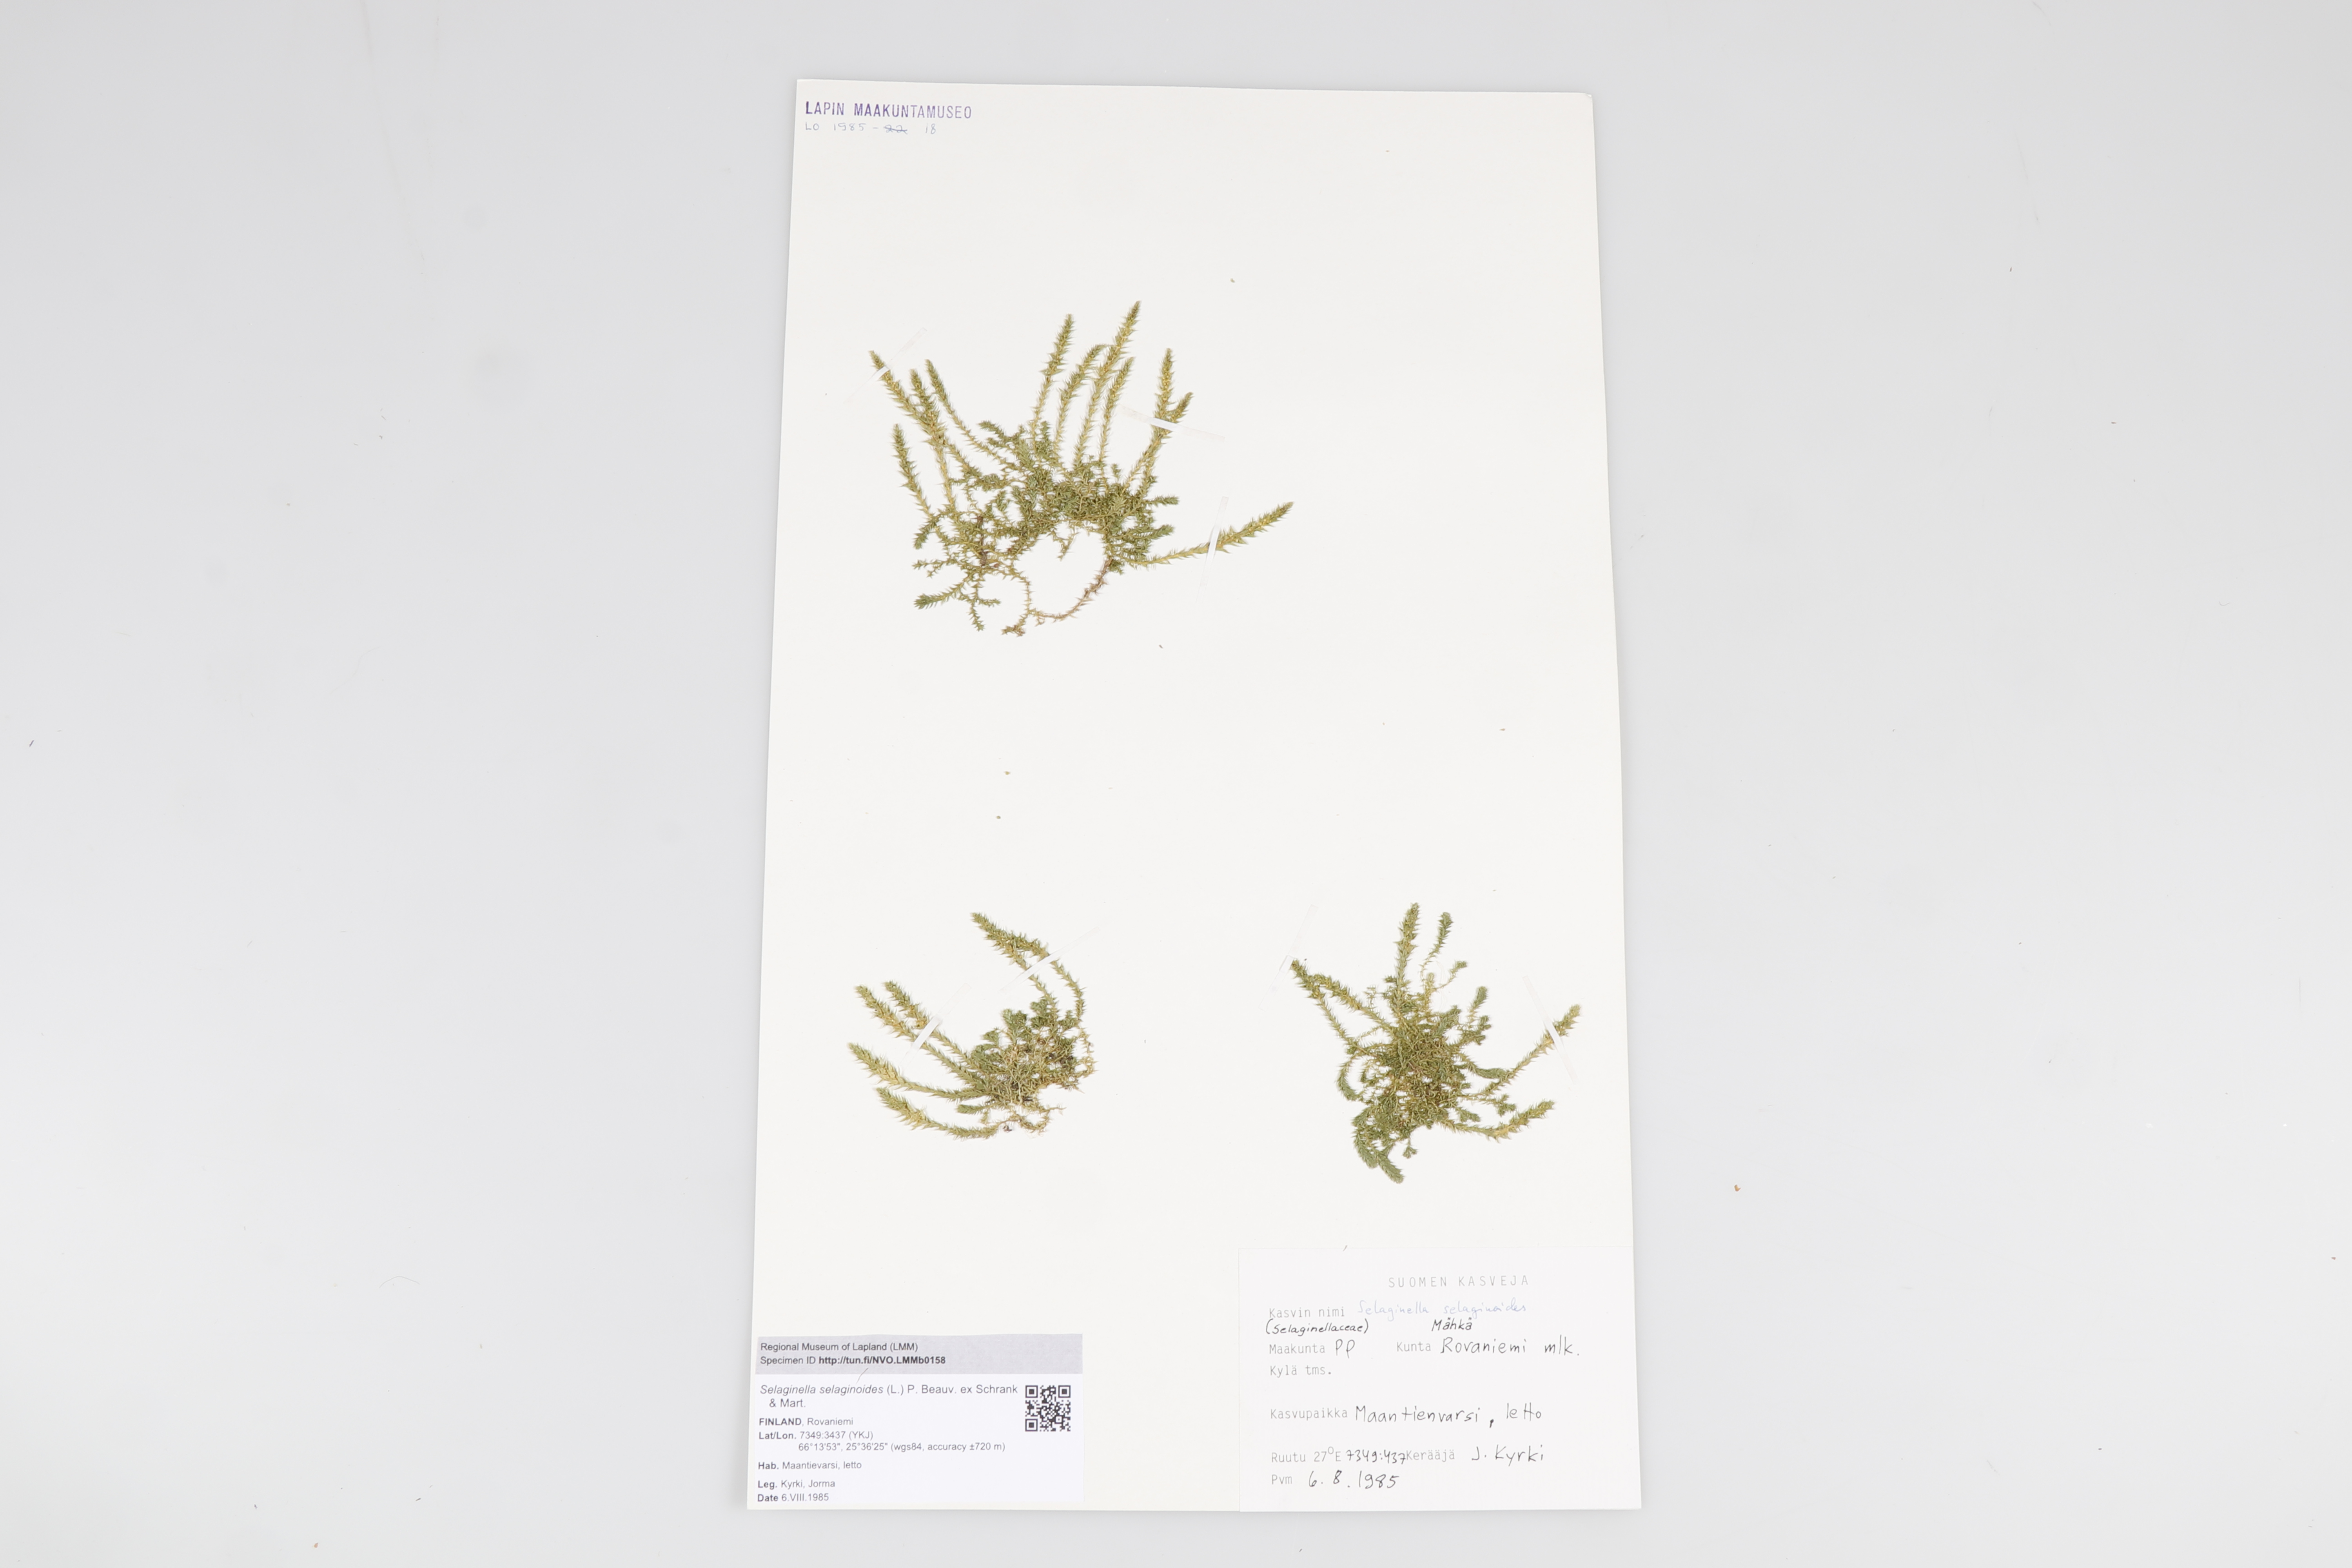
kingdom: Plantae
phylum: Tracheophyta
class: Lycopodiopsida
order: Selaginellales
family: Selaginellaceae
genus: Selaginella
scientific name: Selaginella selaginoides
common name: Prickly mountain-moss
